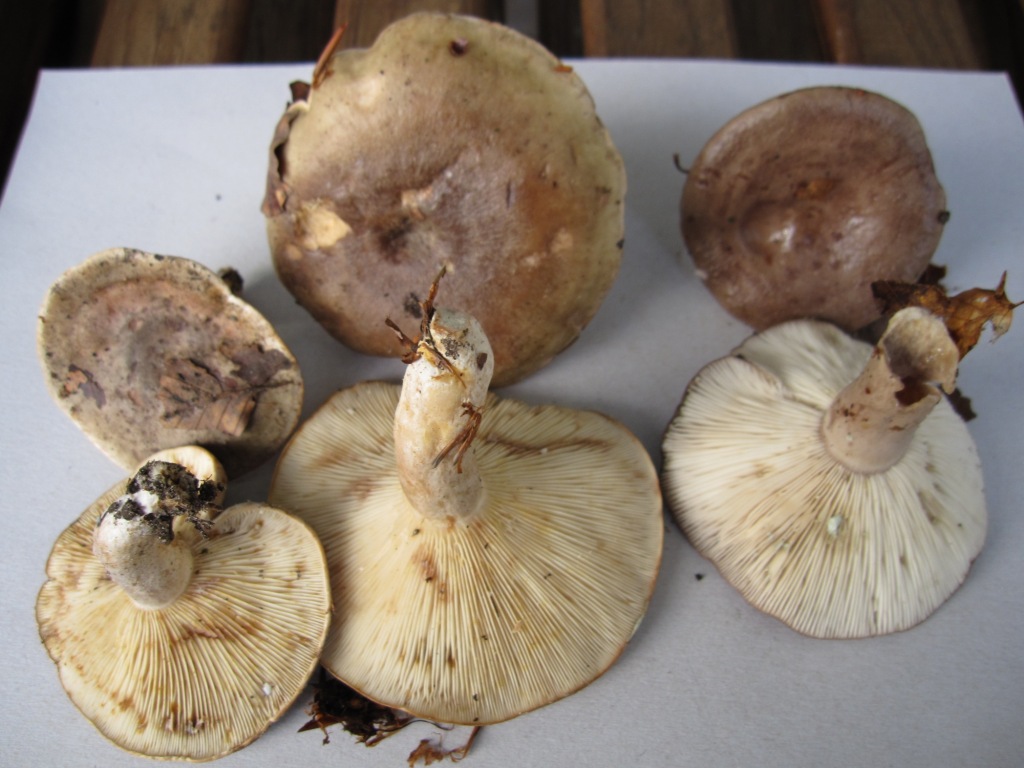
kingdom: Fungi
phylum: Basidiomycota
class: Agaricomycetes
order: Russulales
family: Russulaceae
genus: Lactarius
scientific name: Lactarius fluens
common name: lysrandet mælkehat
